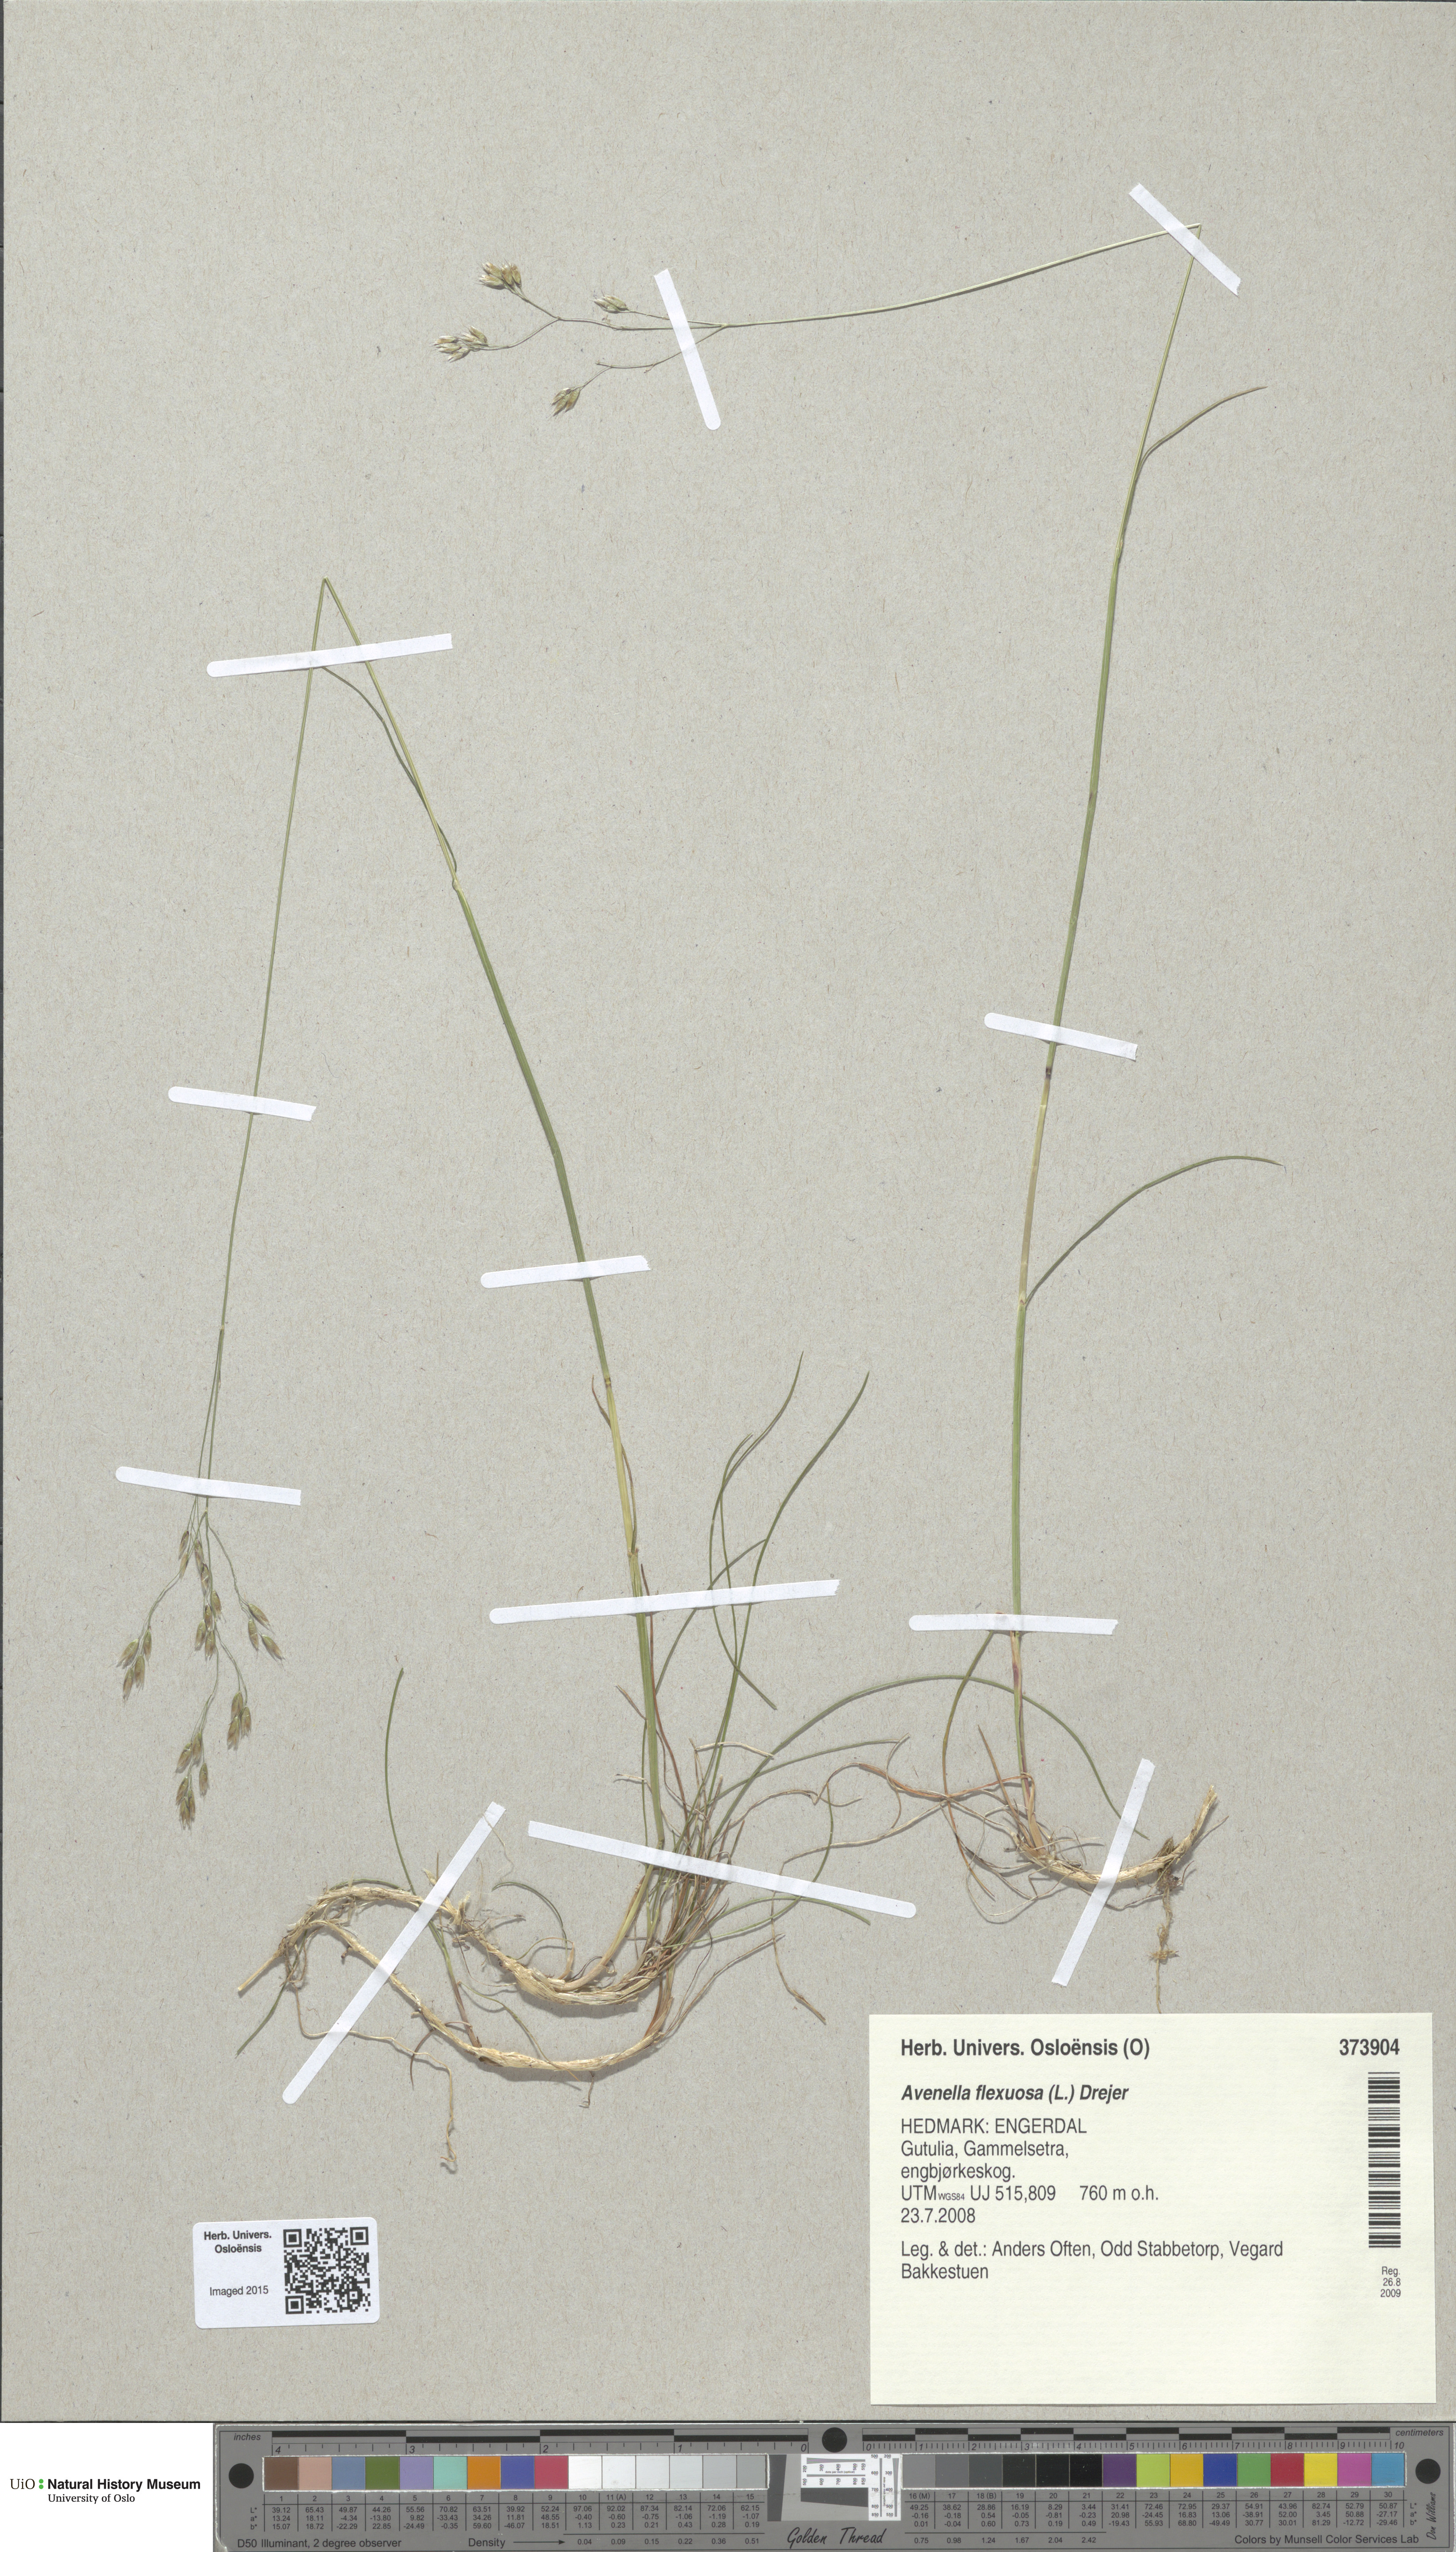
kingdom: Plantae
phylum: Tracheophyta
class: Liliopsida
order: Poales
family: Poaceae
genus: Avenella
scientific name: Avenella flexuosa
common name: Wavy hairgrass
